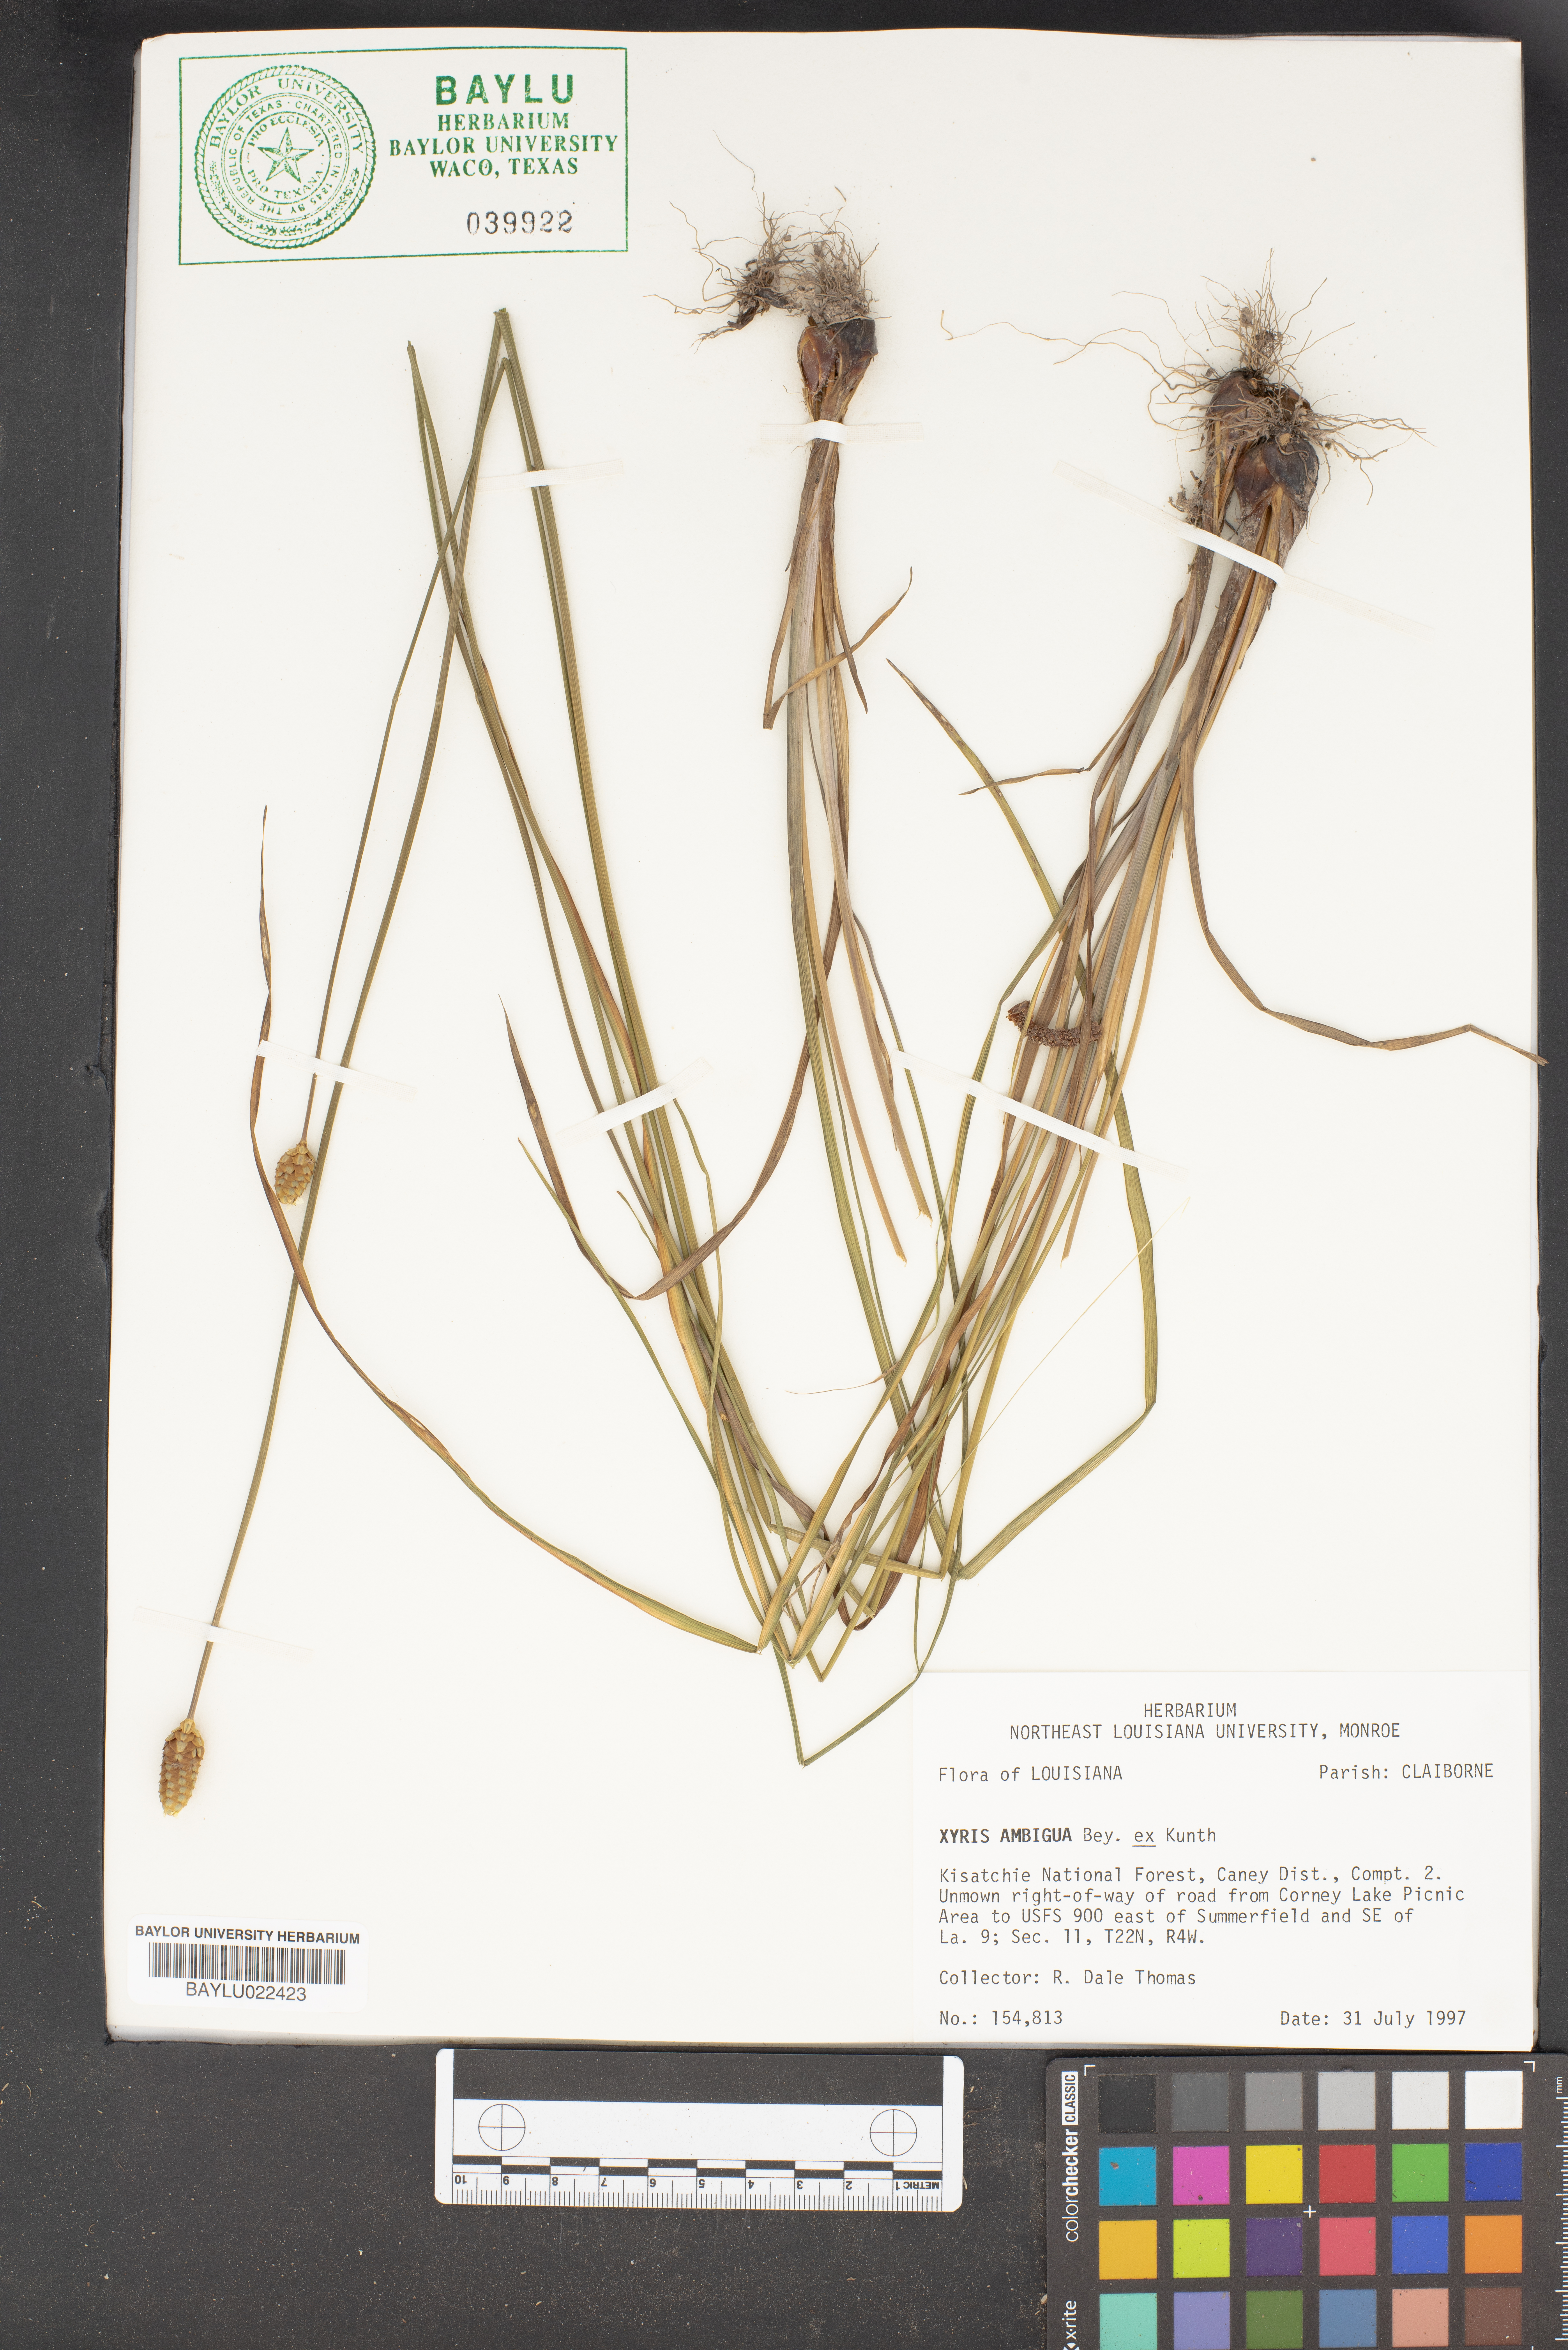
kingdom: Plantae
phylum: Tracheophyta
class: Liliopsida
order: Poales
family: Xyridaceae
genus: Xyris
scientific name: Xyris ambigua
